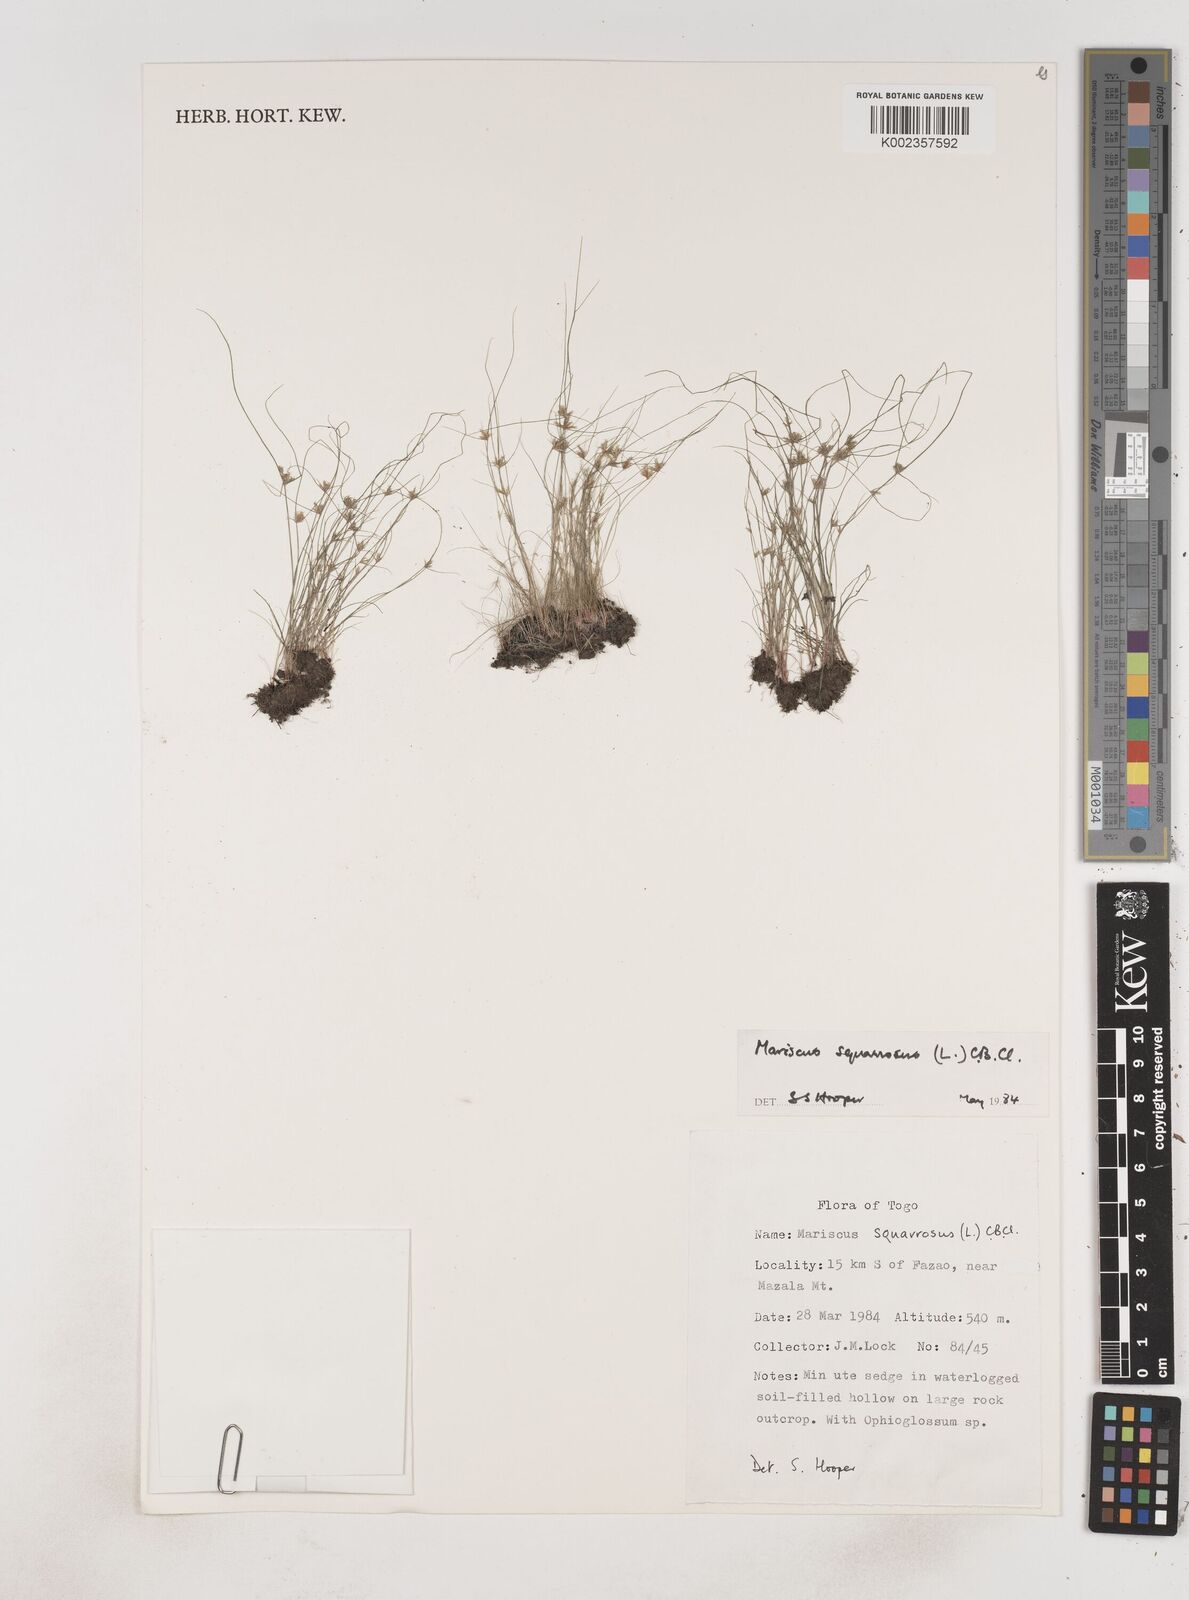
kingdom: Plantae
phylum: Tracheophyta
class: Liliopsida
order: Poales
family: Cyperaceae
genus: Cyperus
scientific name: Cyperus squarrosus
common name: Awned cyperus
